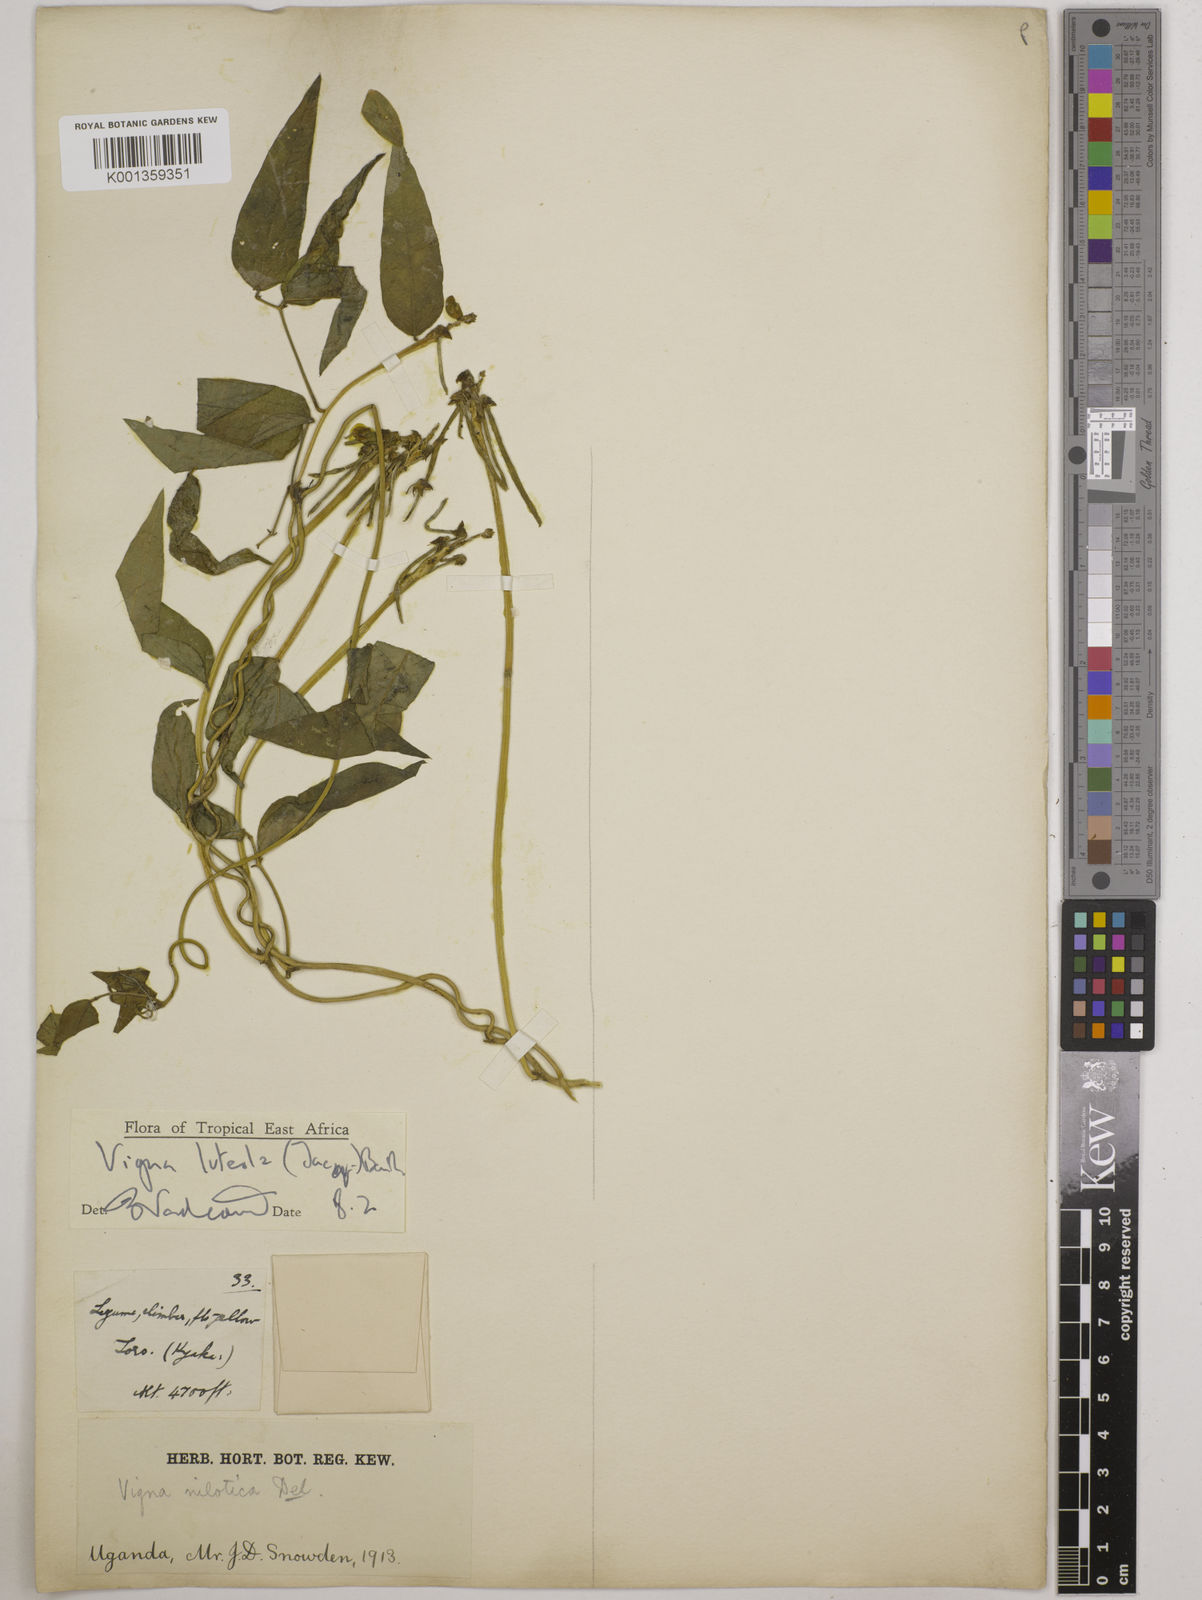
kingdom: Plantae
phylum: Tracheophyta
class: Magnoliopsida
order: Fabales
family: Fabaceae
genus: Vigna
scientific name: Vigna luteola
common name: Hairypod cowpea
